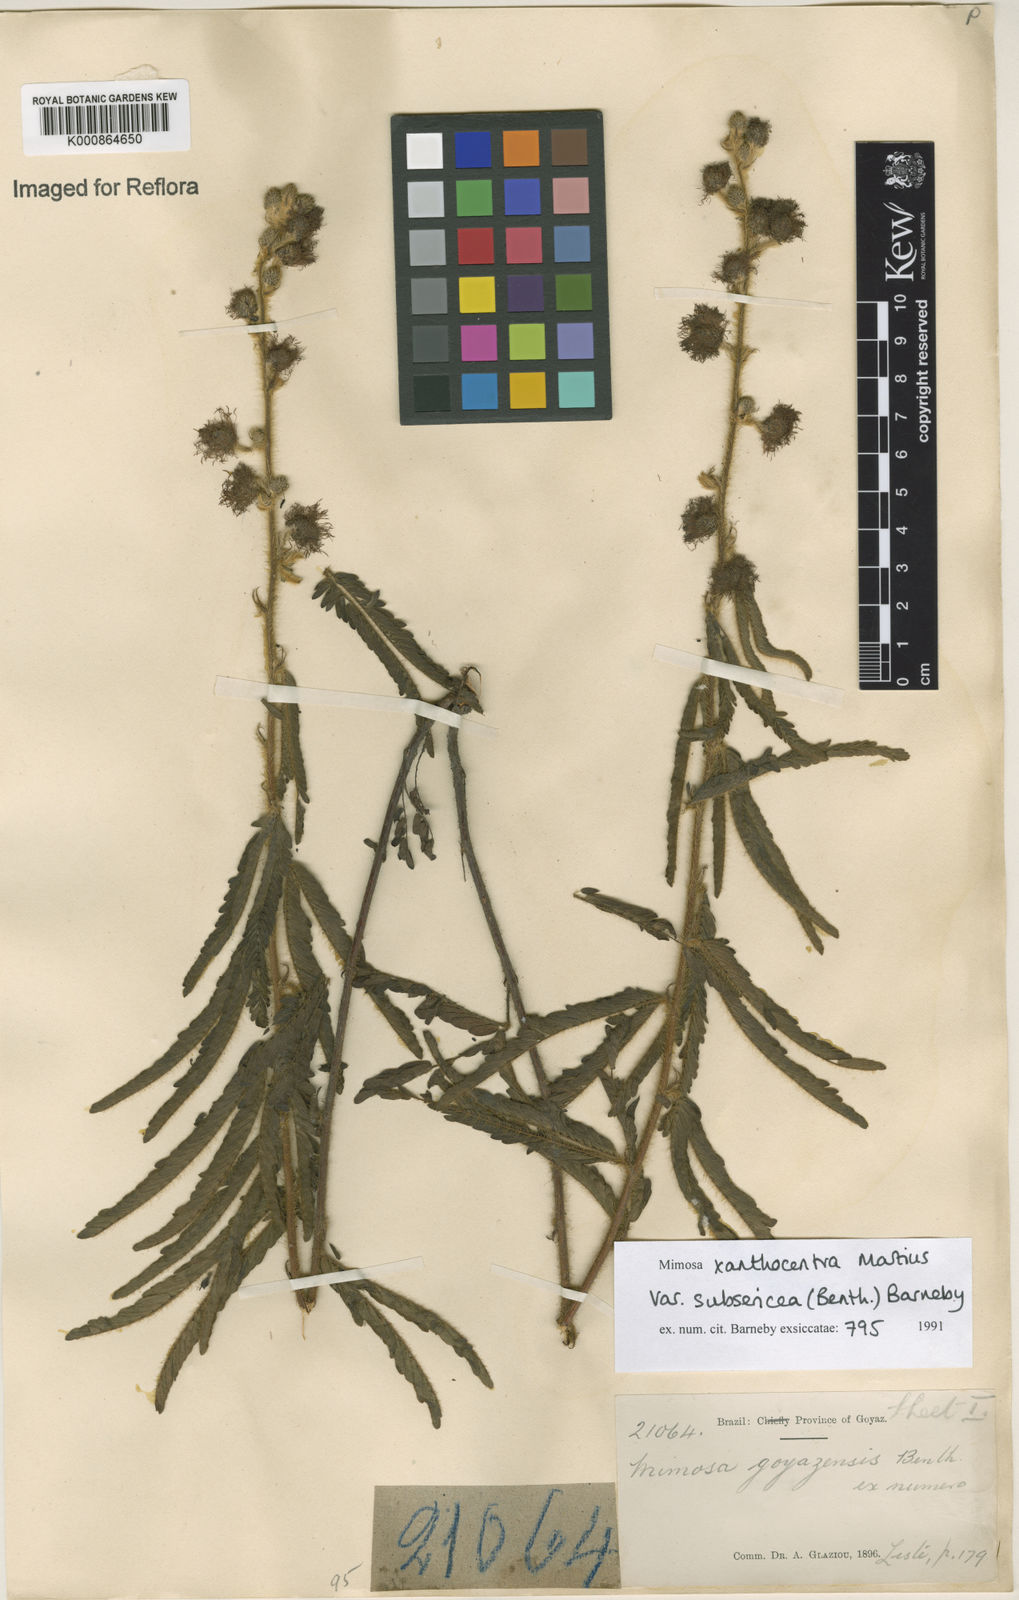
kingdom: Plantae
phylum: Tracheophyta
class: Magnoliopsida
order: Fabales
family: Fabaceae
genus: Mimosa
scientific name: Mimosa xanthocentra
